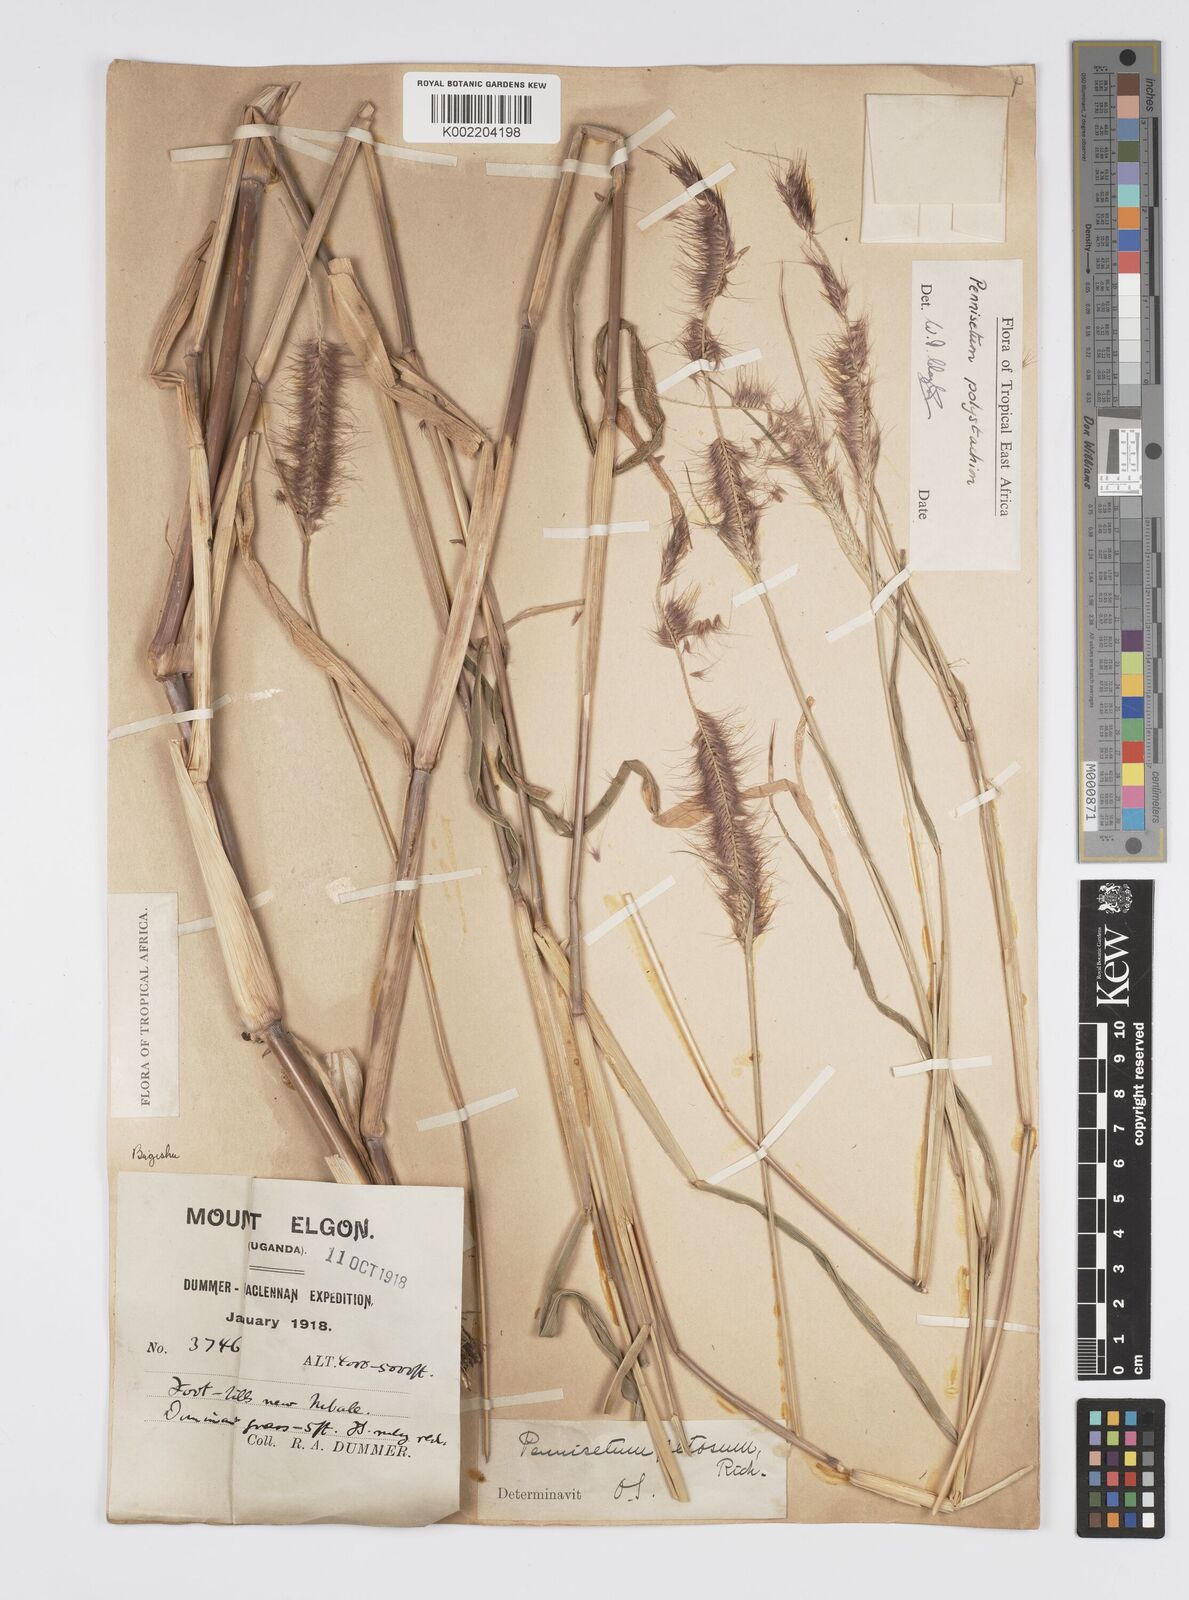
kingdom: Plantae
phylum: Tracheophyta
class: Liliopsida
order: Poales
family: Poaceae
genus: Setaria
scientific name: Setaria parviflora
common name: Knotroot bristle-grass
